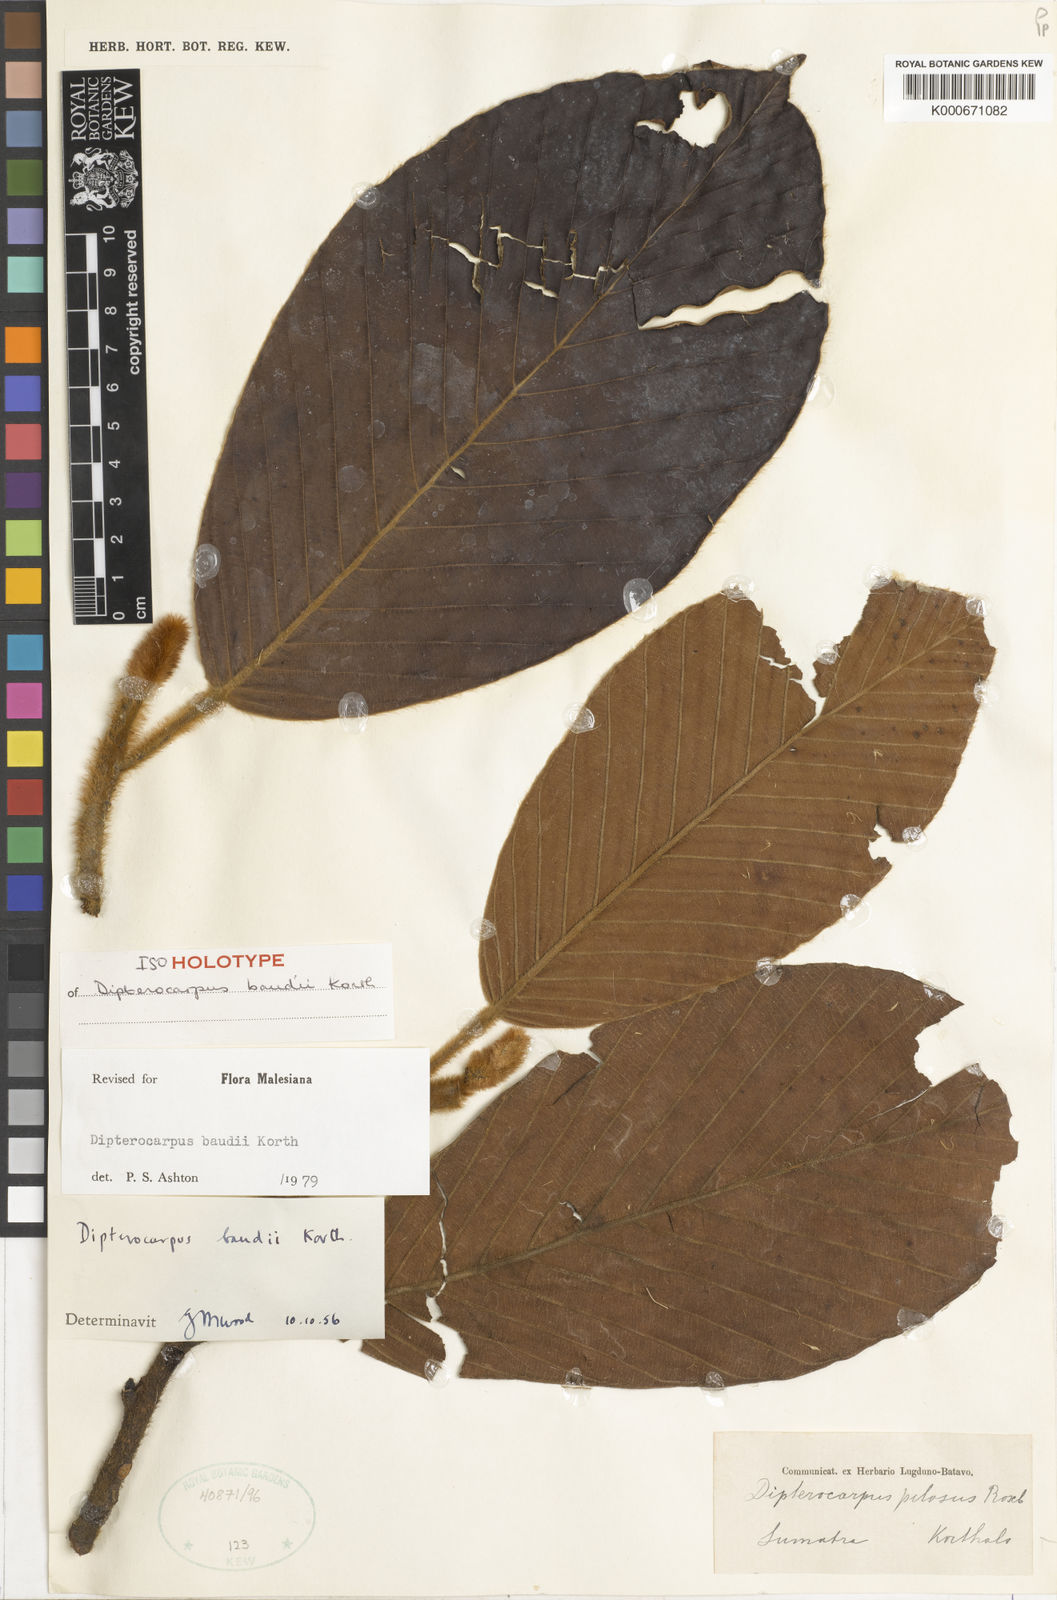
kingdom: Plantae
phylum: Tracheophyta
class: Magnoliopsida
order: Malvales
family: Dipterocarpaceae
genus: Dipterocarpus
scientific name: Dipterocarpus baudii
